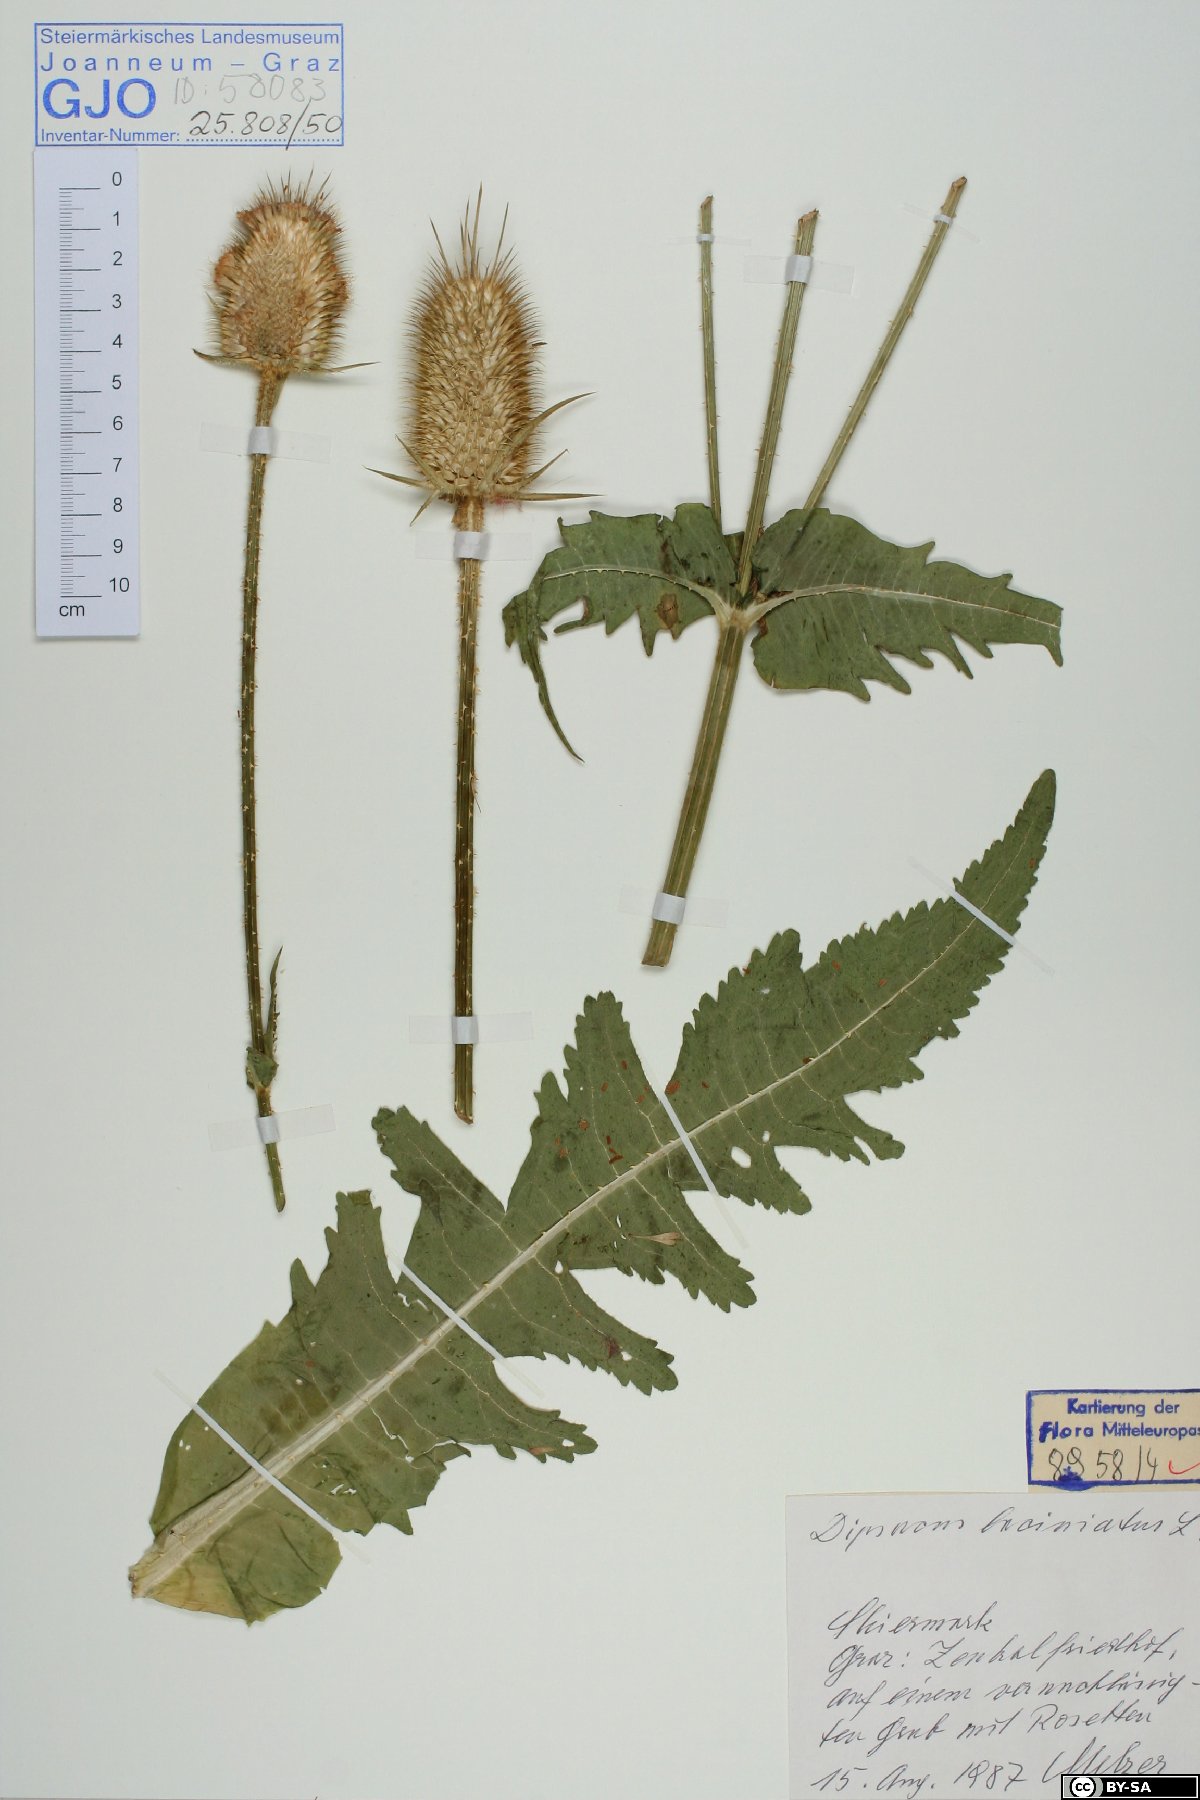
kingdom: Plantae
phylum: Tracheophyta
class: Magnoliopsida
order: Dipsacales
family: Caprifoliaceae
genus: Dipsacus
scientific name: Dipsacus laciniatus
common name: Cut-leaved teasel
